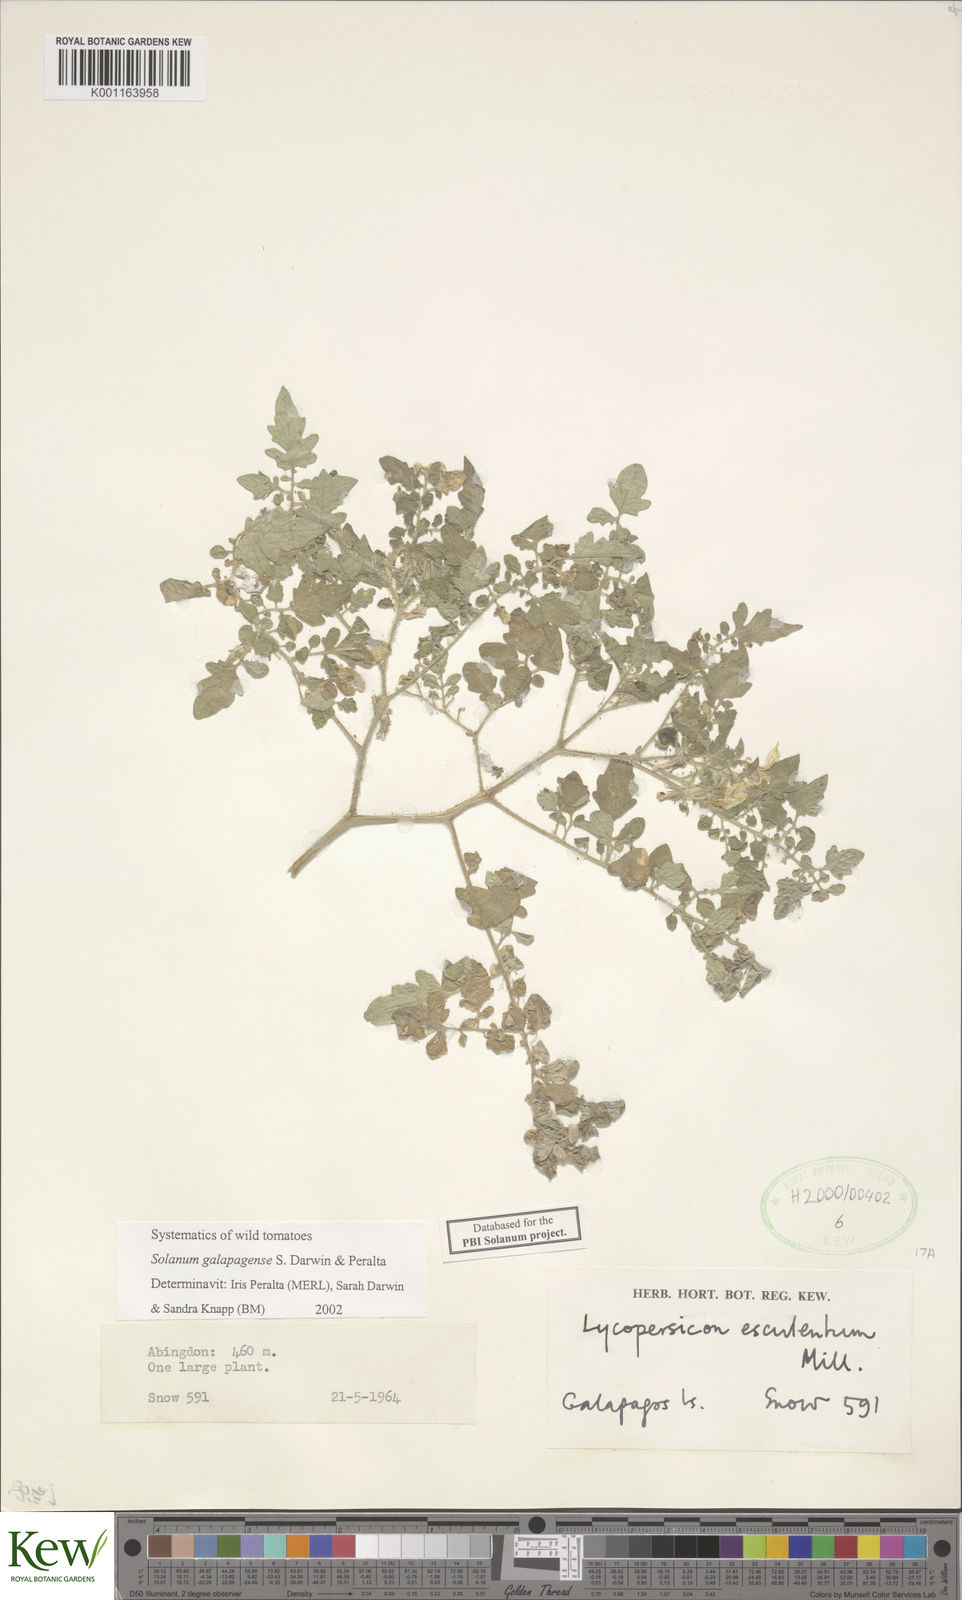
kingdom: Plantae
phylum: Tracheophyta
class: Magnoliopsida
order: Solanales
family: Solanaceae
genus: Solanum
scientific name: Solanum galapagense
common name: Galápagos tomato
